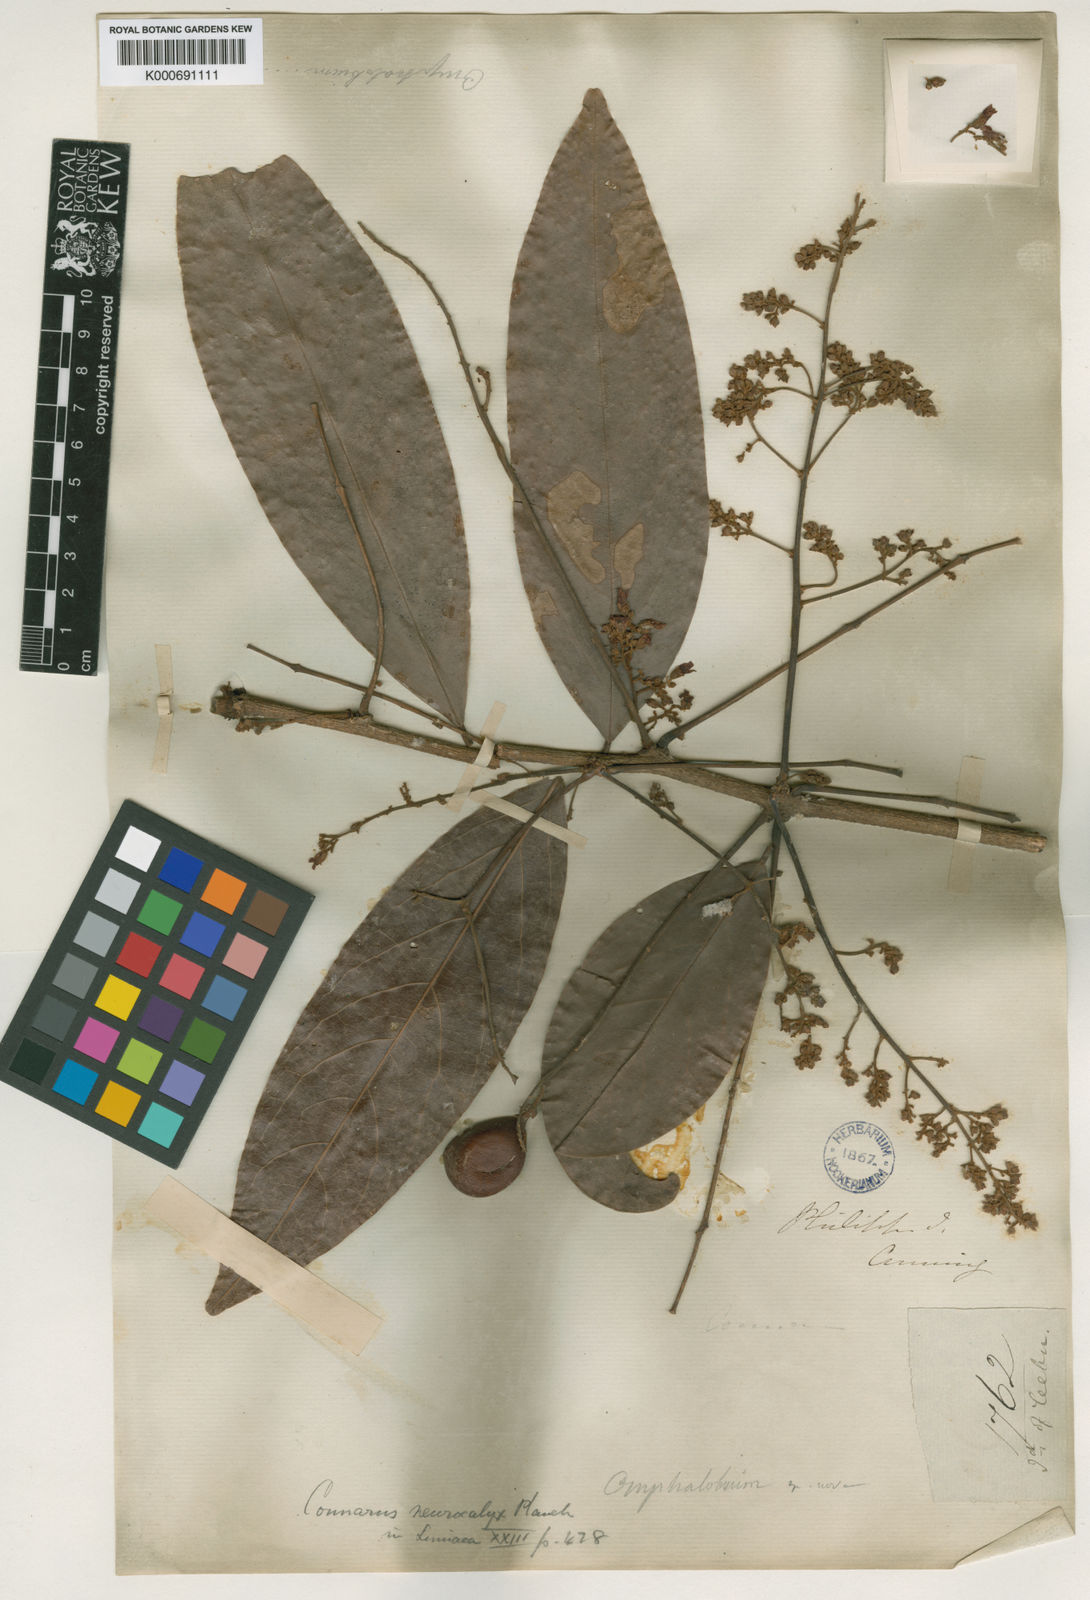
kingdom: Plantae
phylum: Tracheophyta
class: Magnoliopsida
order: Oxalidales
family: Connaraceae
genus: Connarus
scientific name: Connarus semidecandrus
